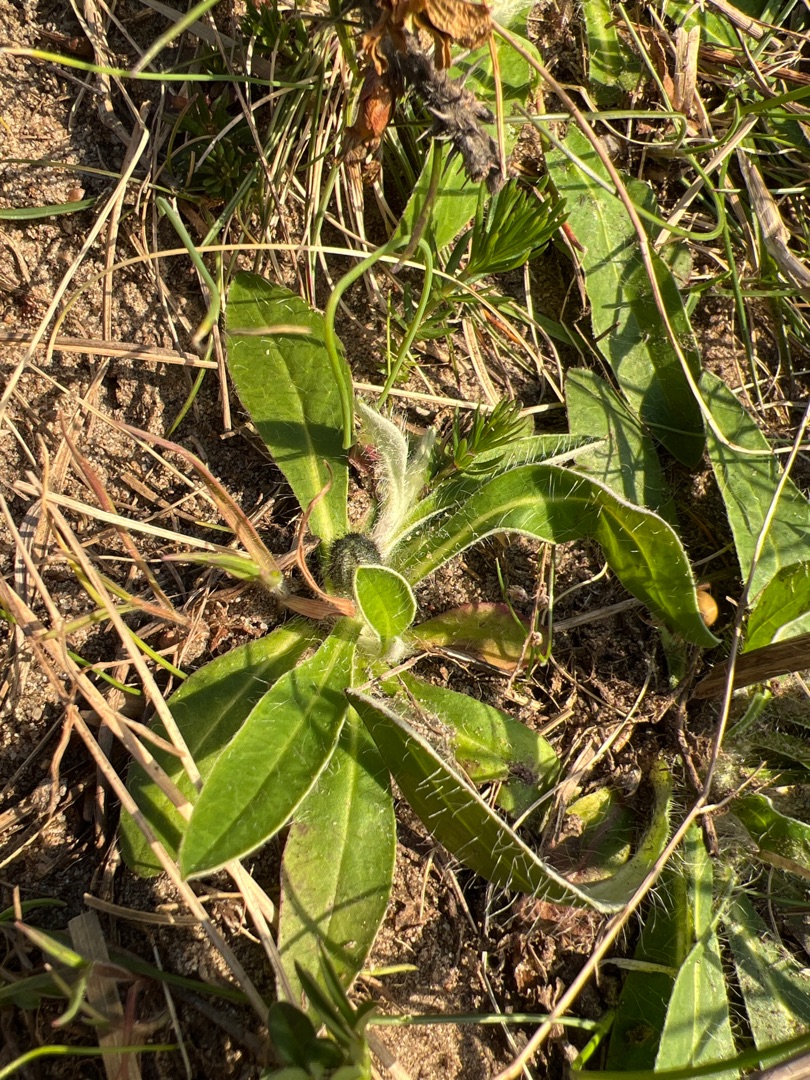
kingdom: Plantae
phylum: Tracheophyta
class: Magnoliopsida
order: Asterales
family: Asteraceae
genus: Pilosella
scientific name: Pilosella officinarum
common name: Håret høgeurt
